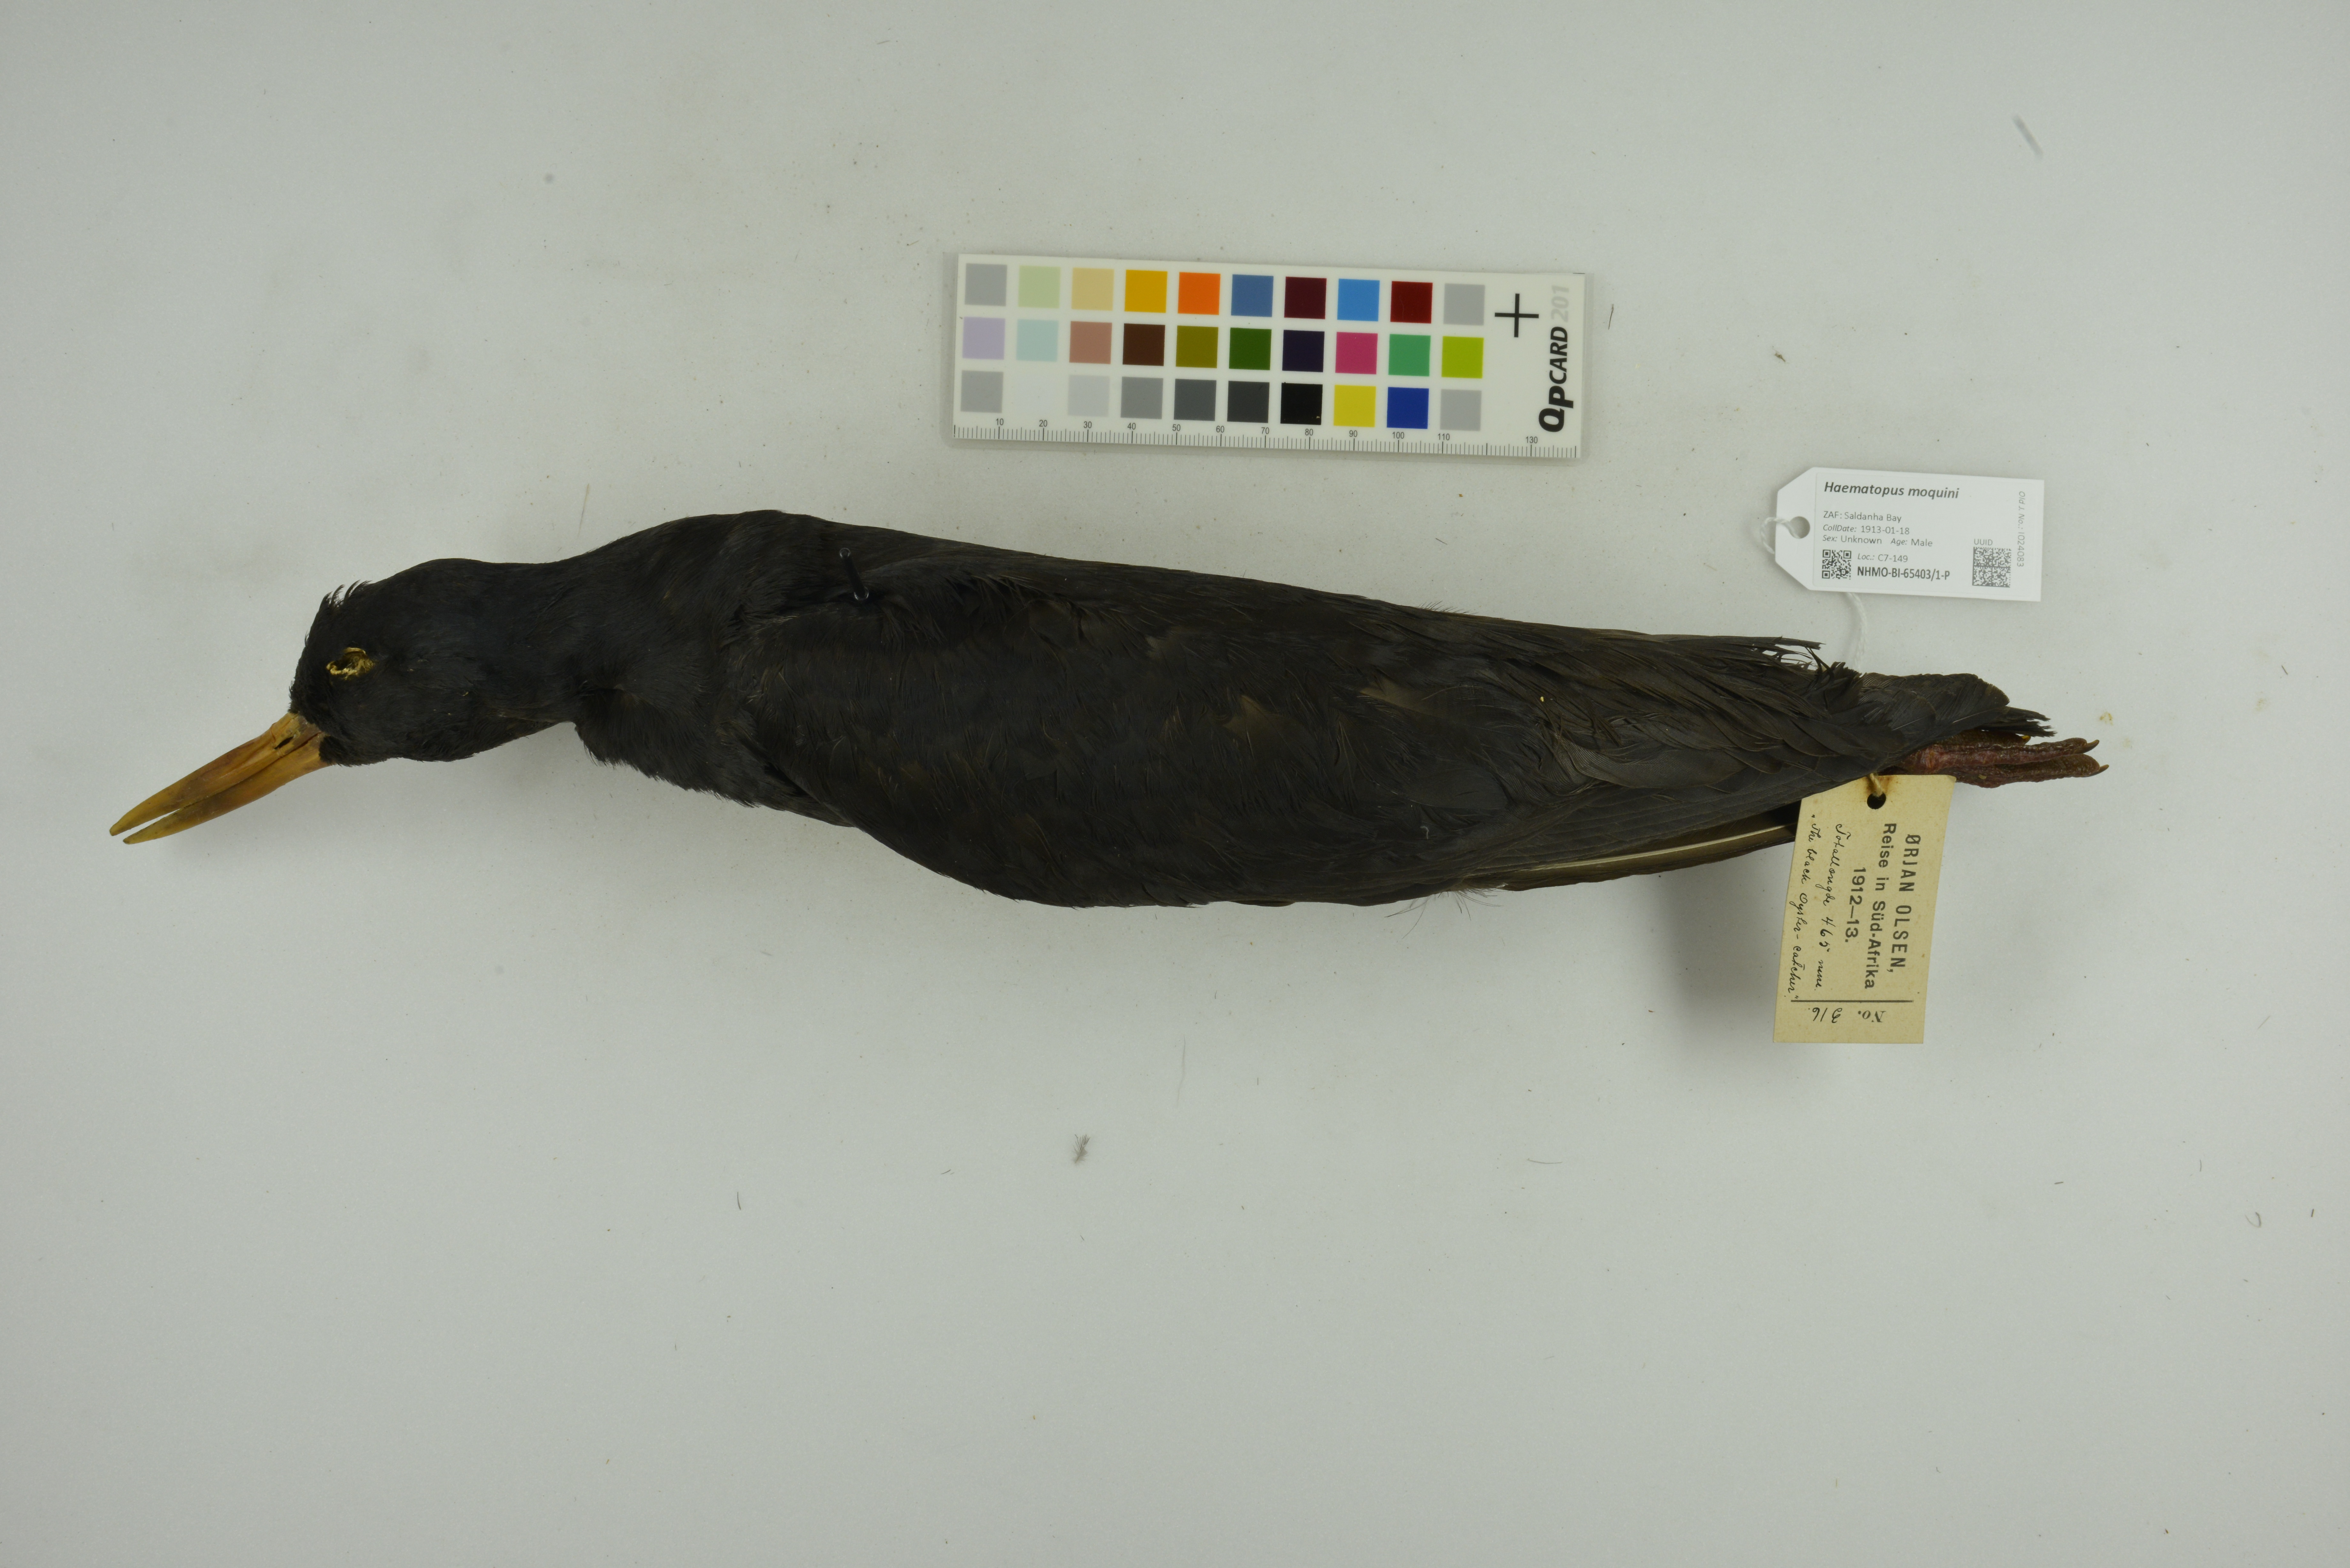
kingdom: Animalia
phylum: Chordata
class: Aves
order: Charadriiformes
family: Haematopodidae
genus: Haematopus
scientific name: Haematopus moquini
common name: African oystercatcher
